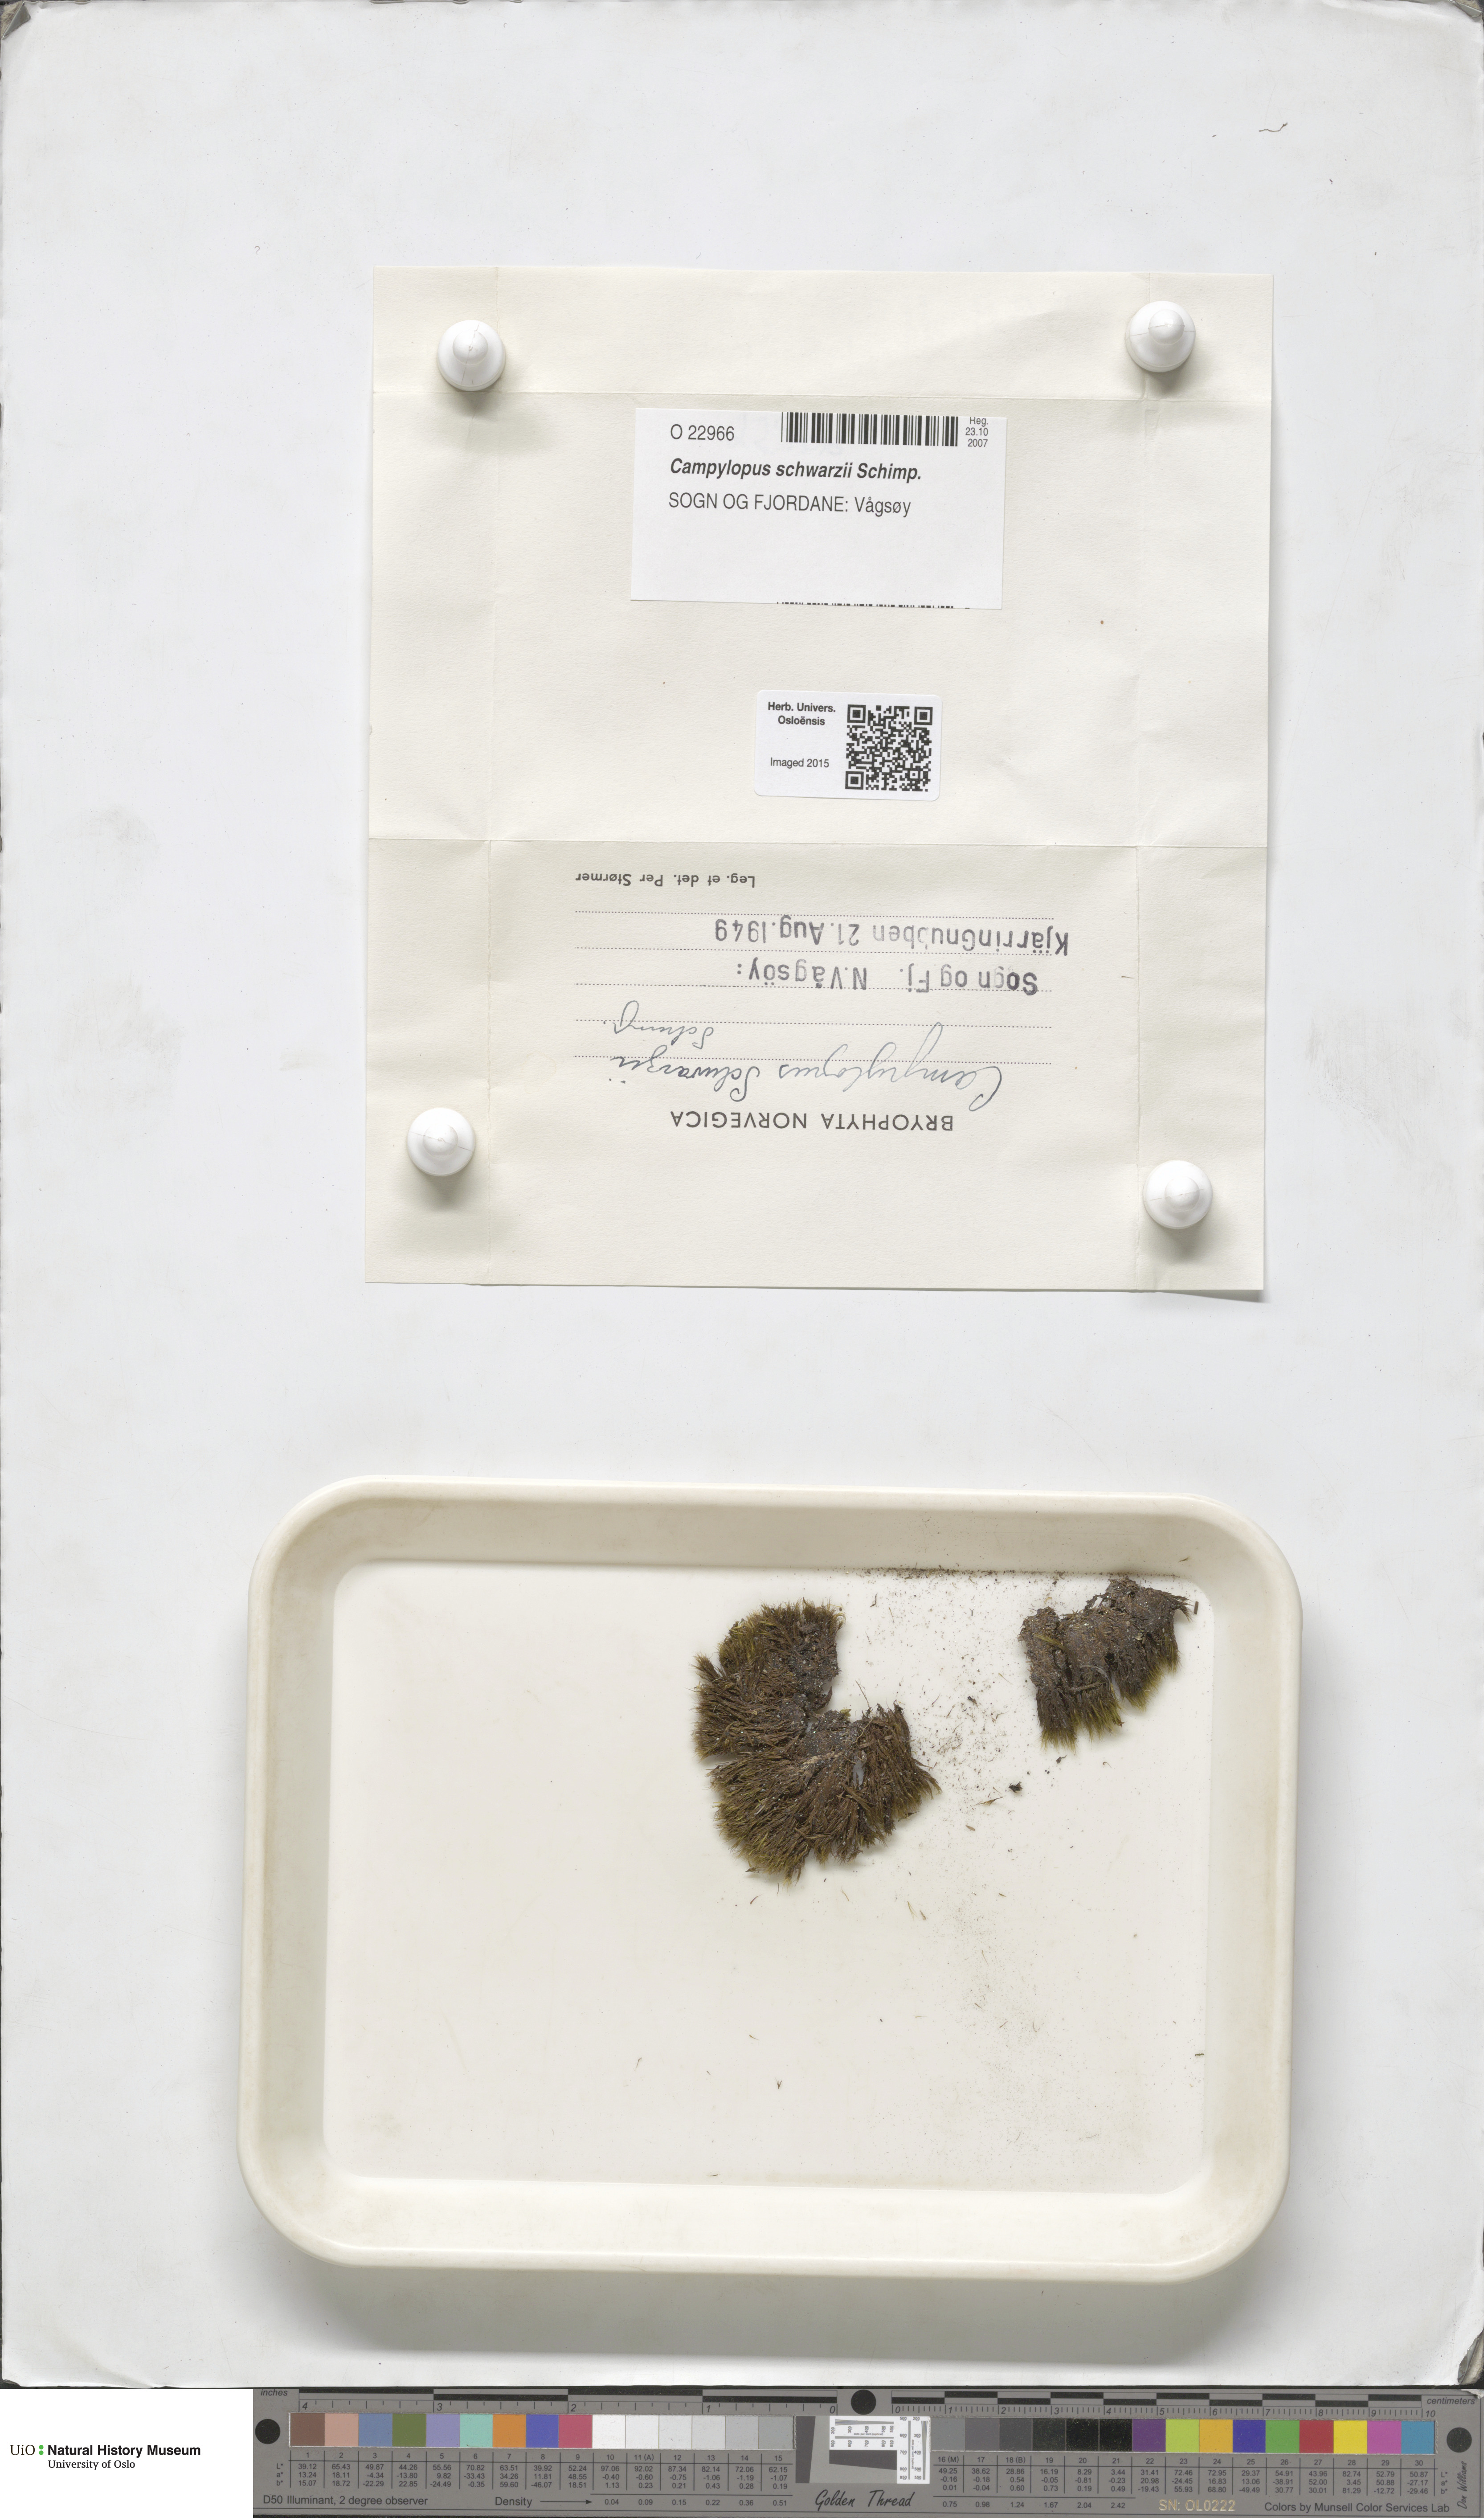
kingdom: Plantae
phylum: Bryophyta
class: Bryopsida
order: Dicranales
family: Leucobryaceae
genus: Campylopus
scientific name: Campylopus gracilis
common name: Schwarz's swan-neck moss
